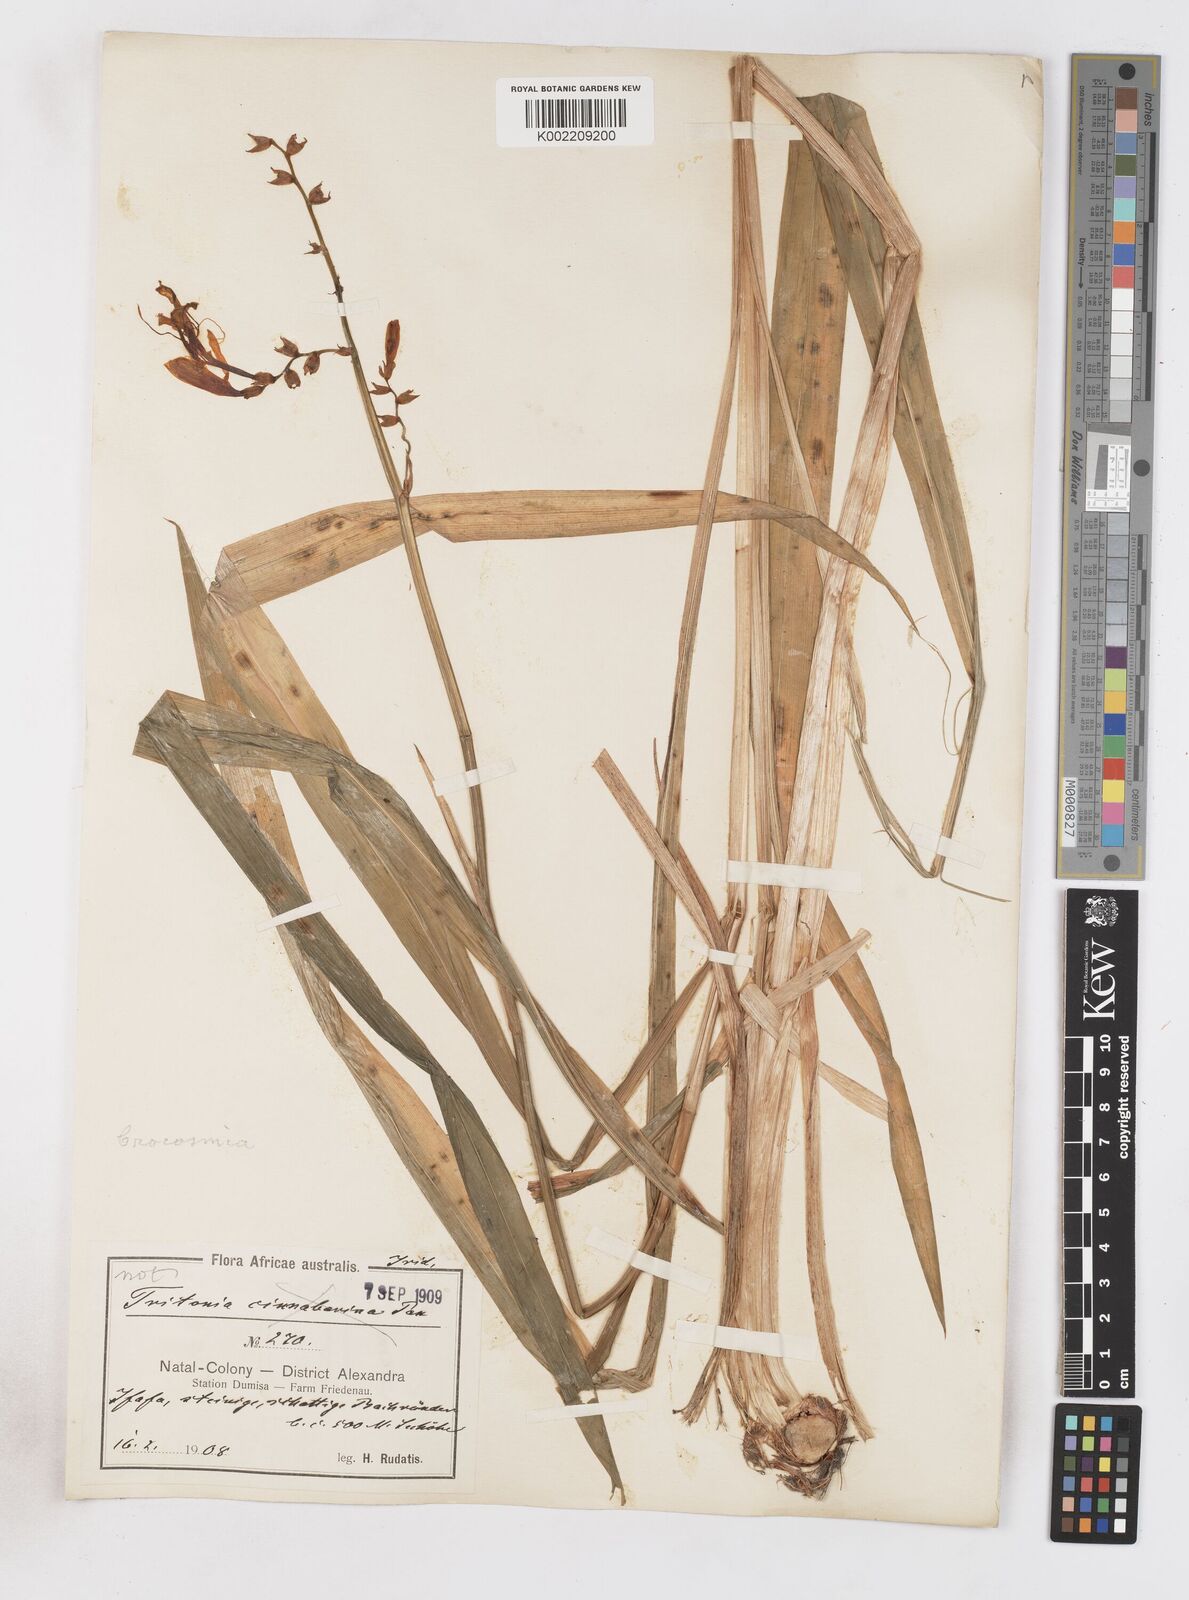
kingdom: Plantae
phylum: Tracheophyta
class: Liliopsida
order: Asparagales
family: Iridaceae
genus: Crocosmia
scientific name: Crocosmia aurea
